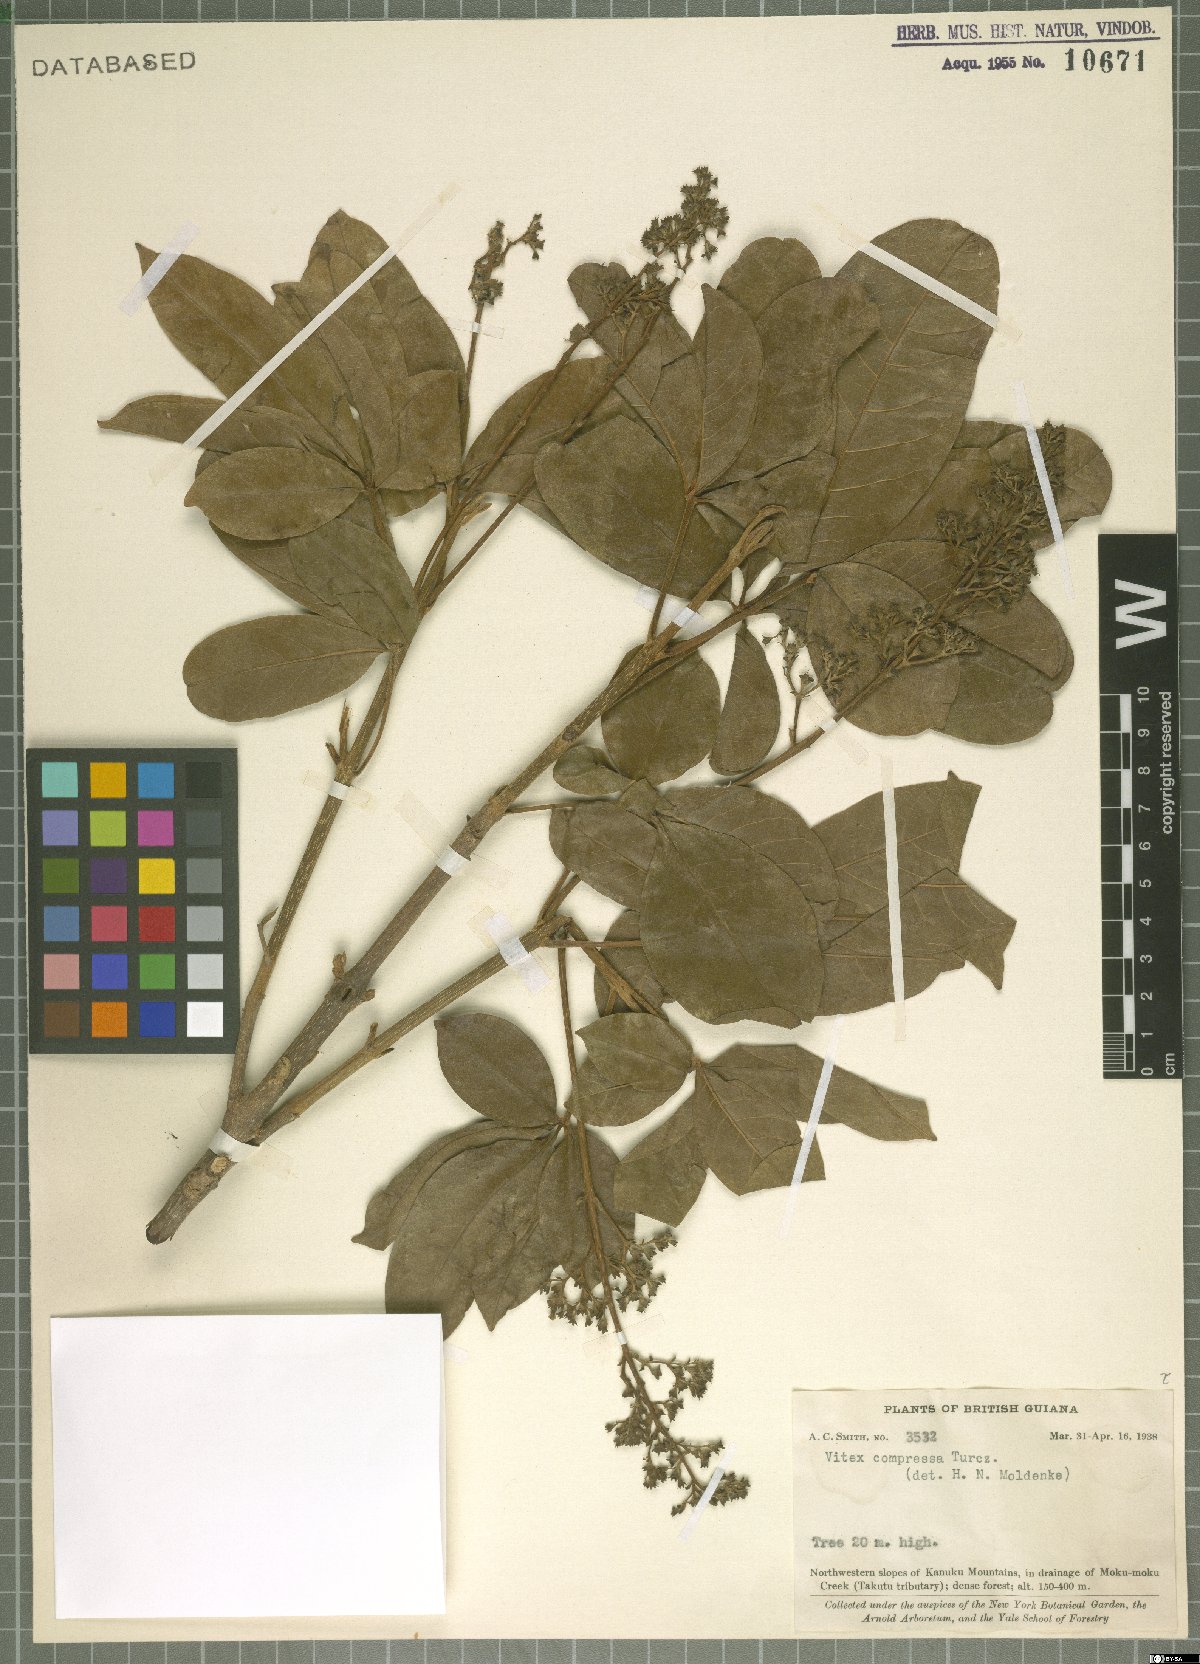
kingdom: Plantae
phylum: Tracheophyta
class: Magnoliopsida
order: Lamiales
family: Lamiaceae
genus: Vitex
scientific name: Vitex compressa
